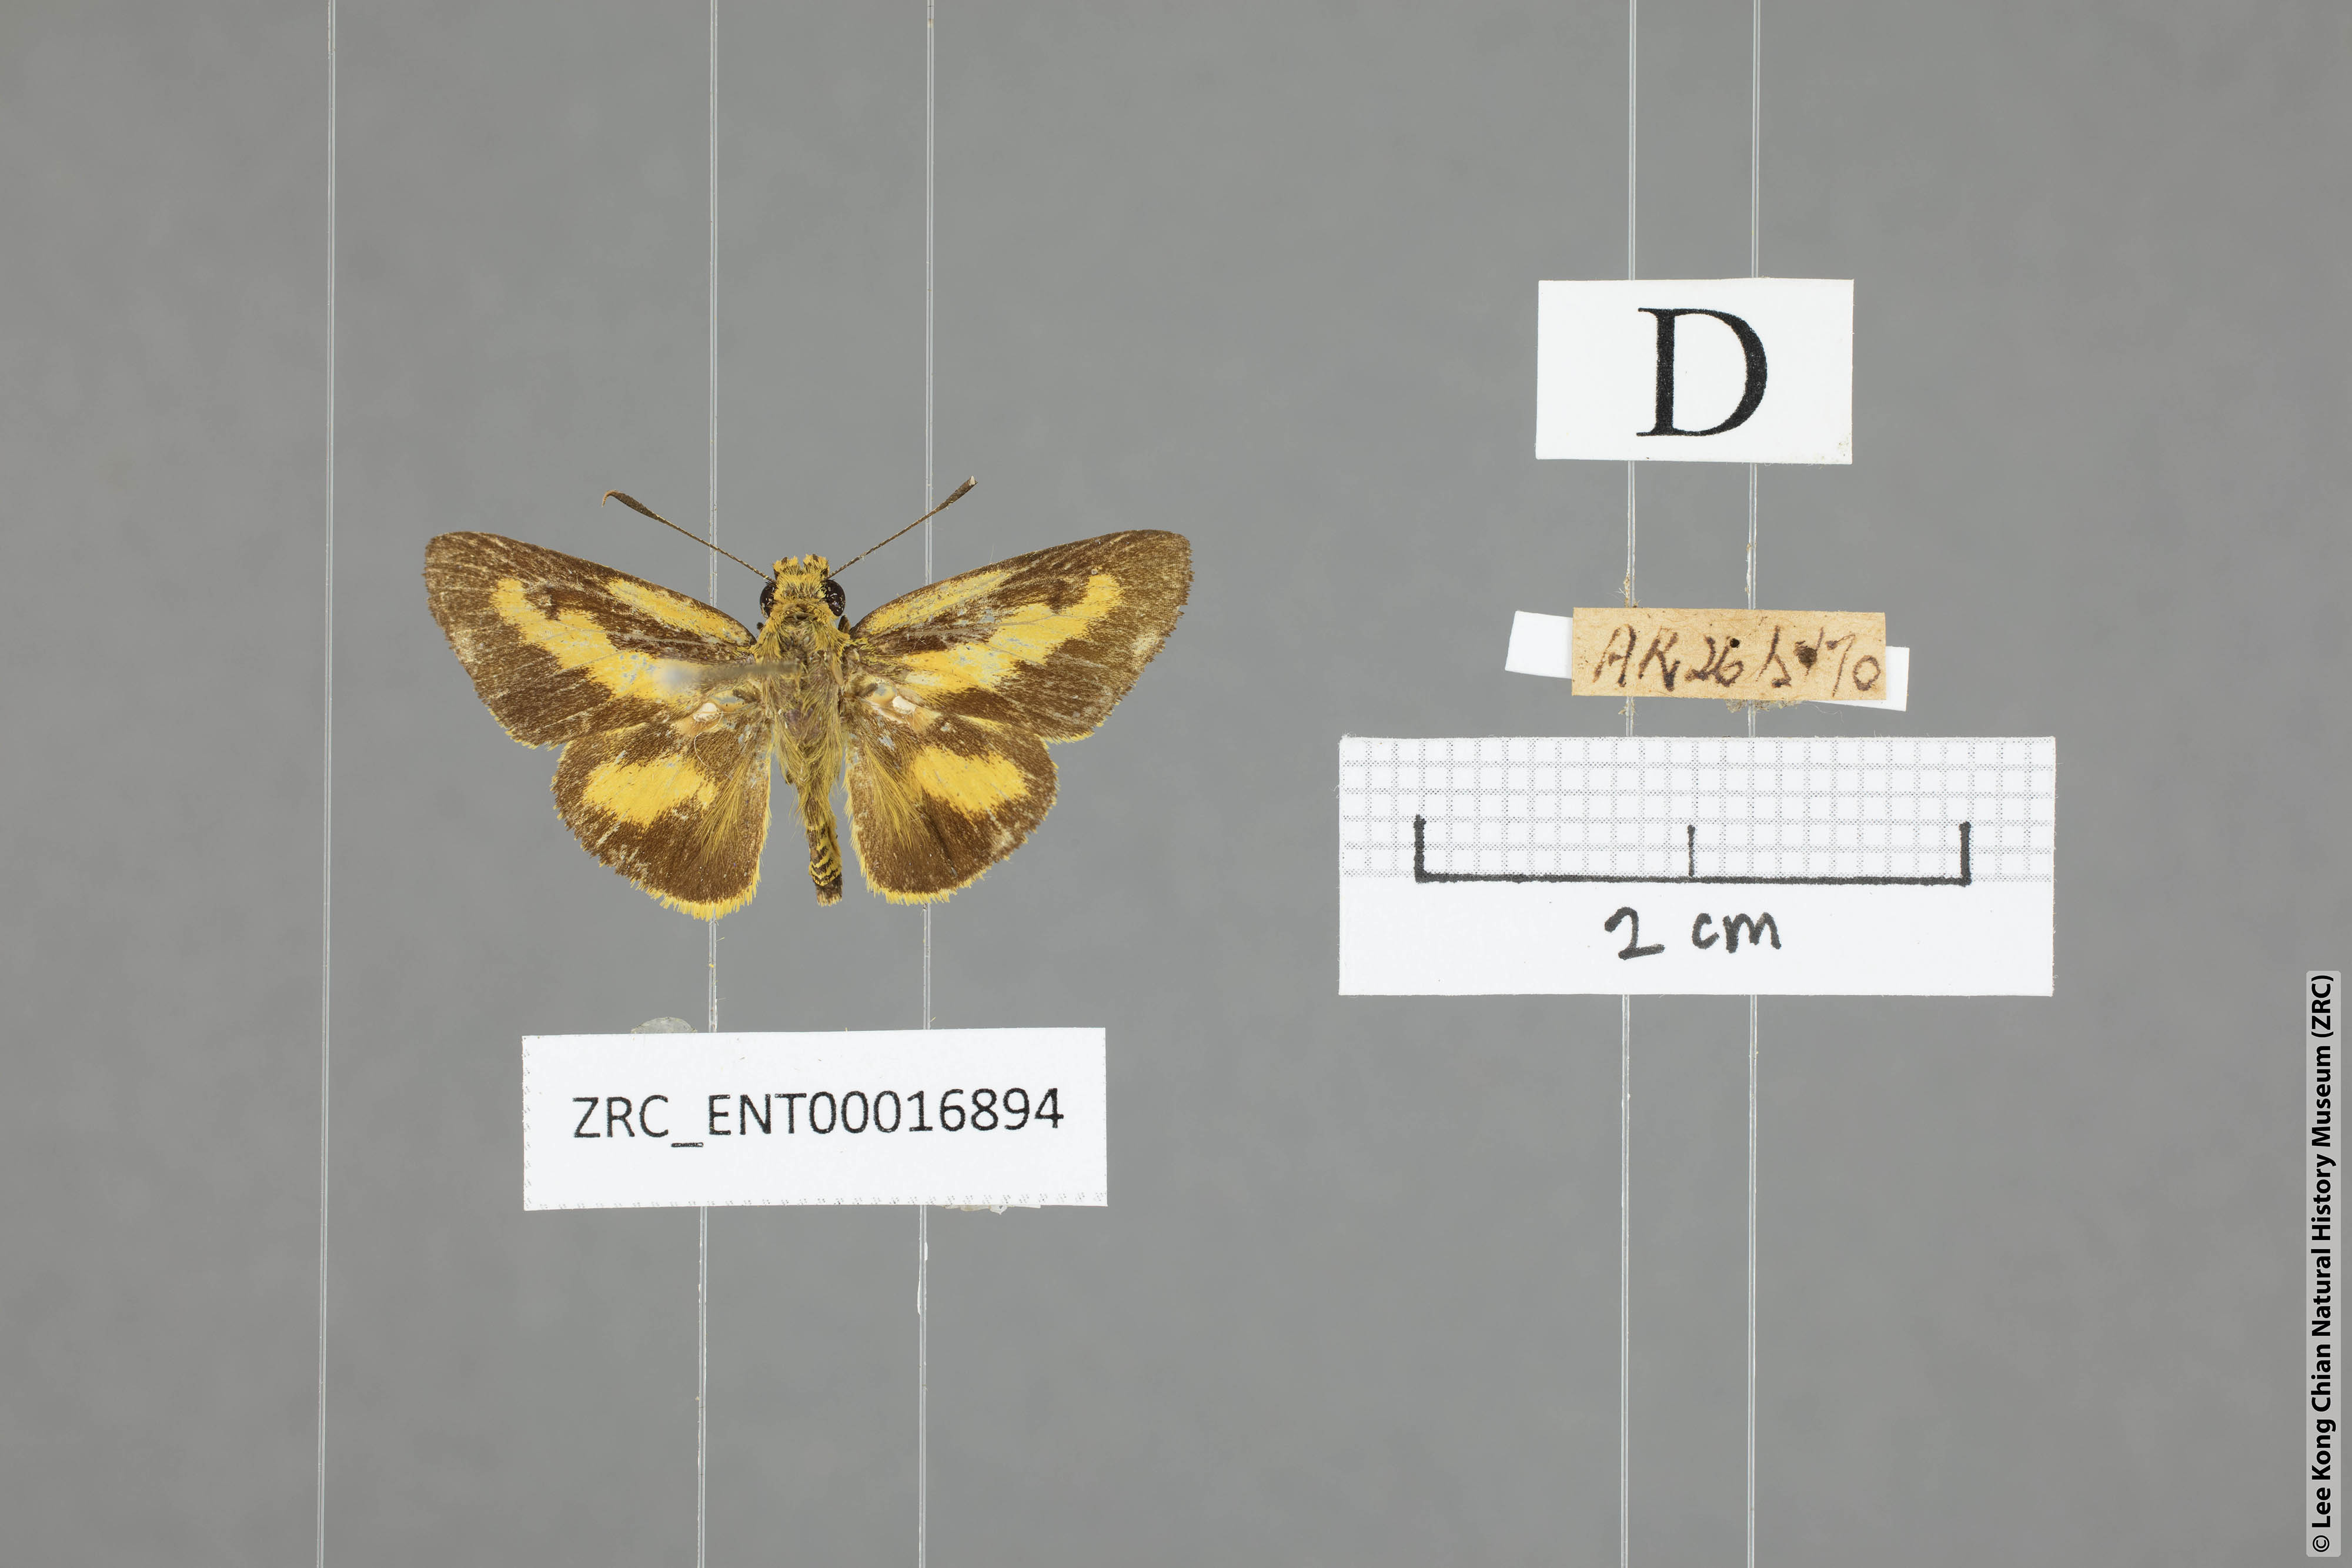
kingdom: Animalia
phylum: Arthropoda
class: Insecta
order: Lepidoptera
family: Hesperiidae
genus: Cupitha
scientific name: Cupitha purreea
